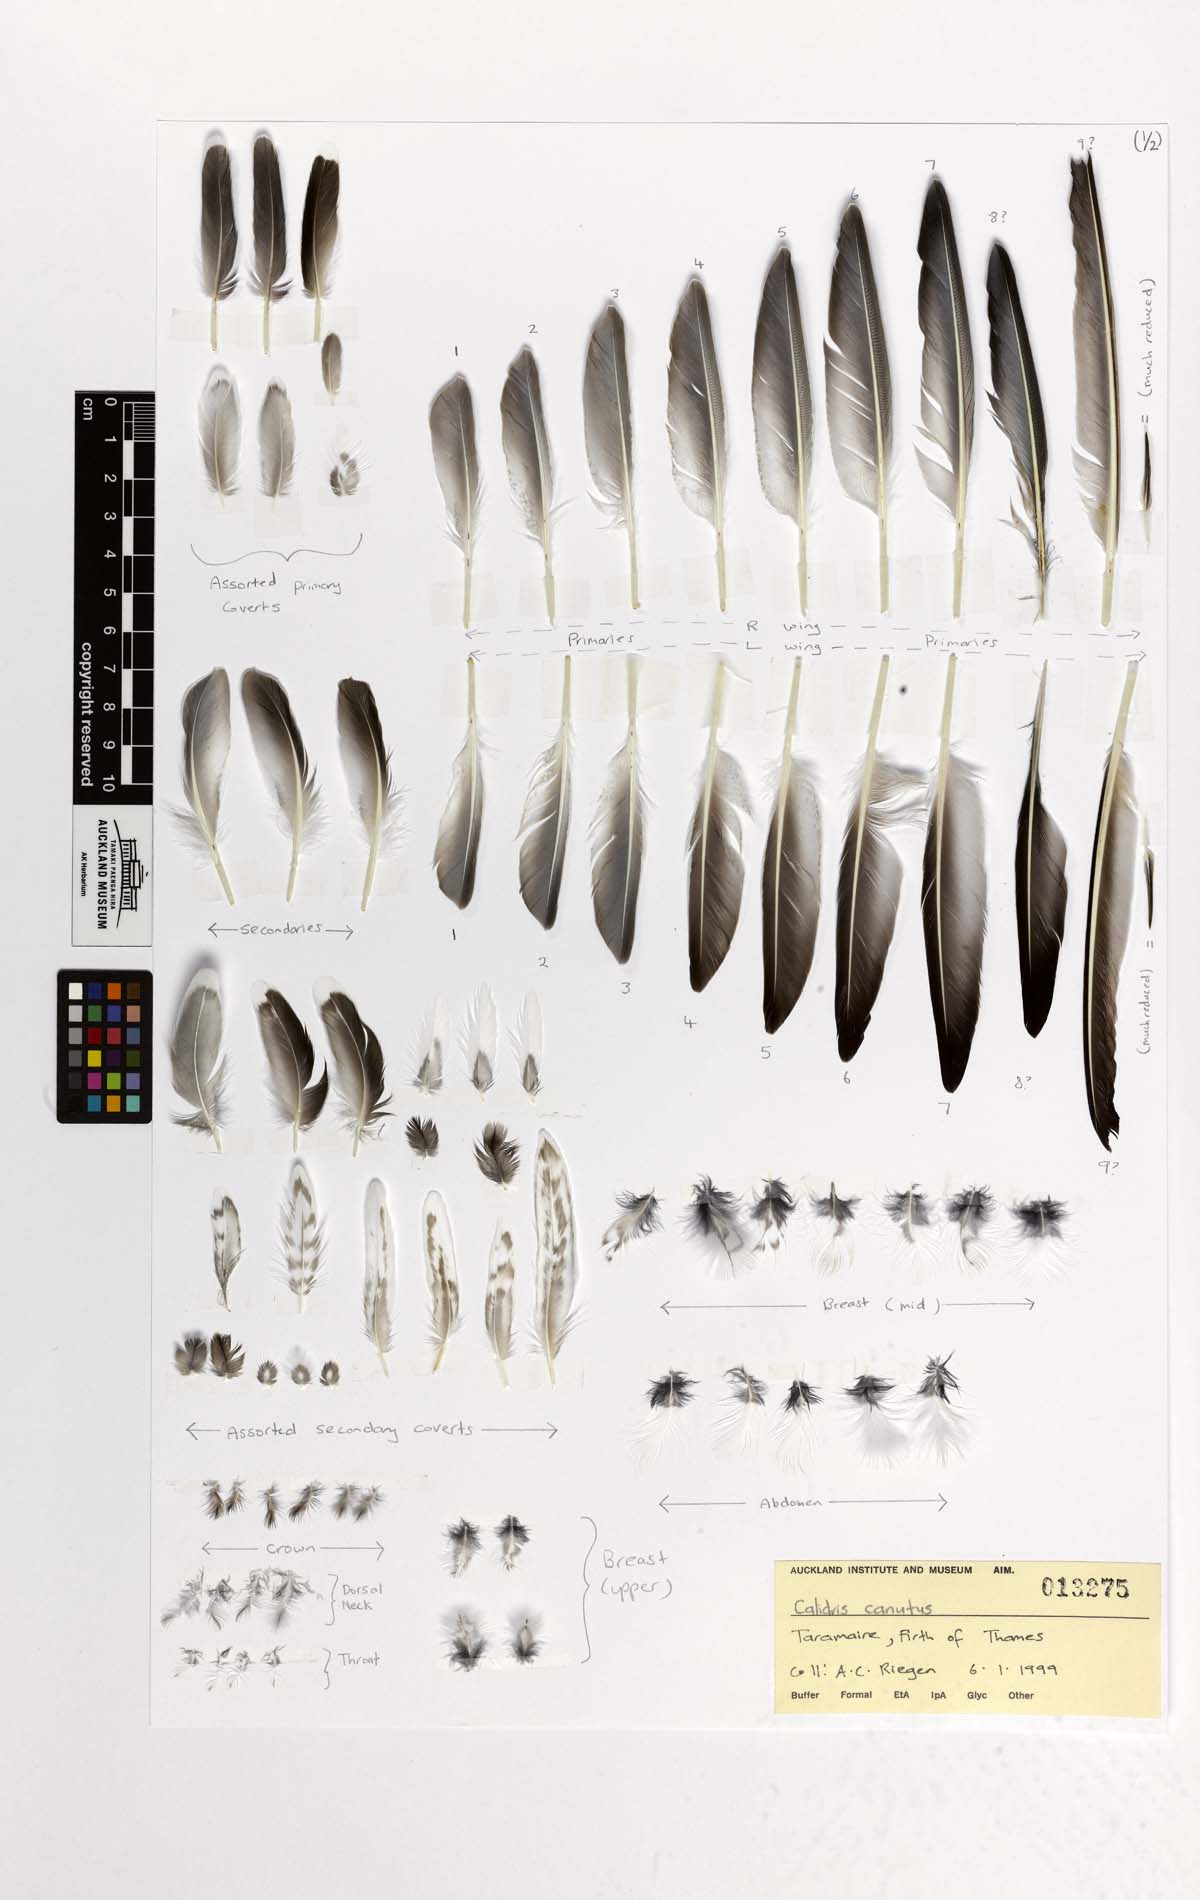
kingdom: Animalia
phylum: Chordata
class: Aves
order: Charadriiformes
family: Scolopacidae
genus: Calidris
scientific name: Calidris canutus
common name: Red knot
